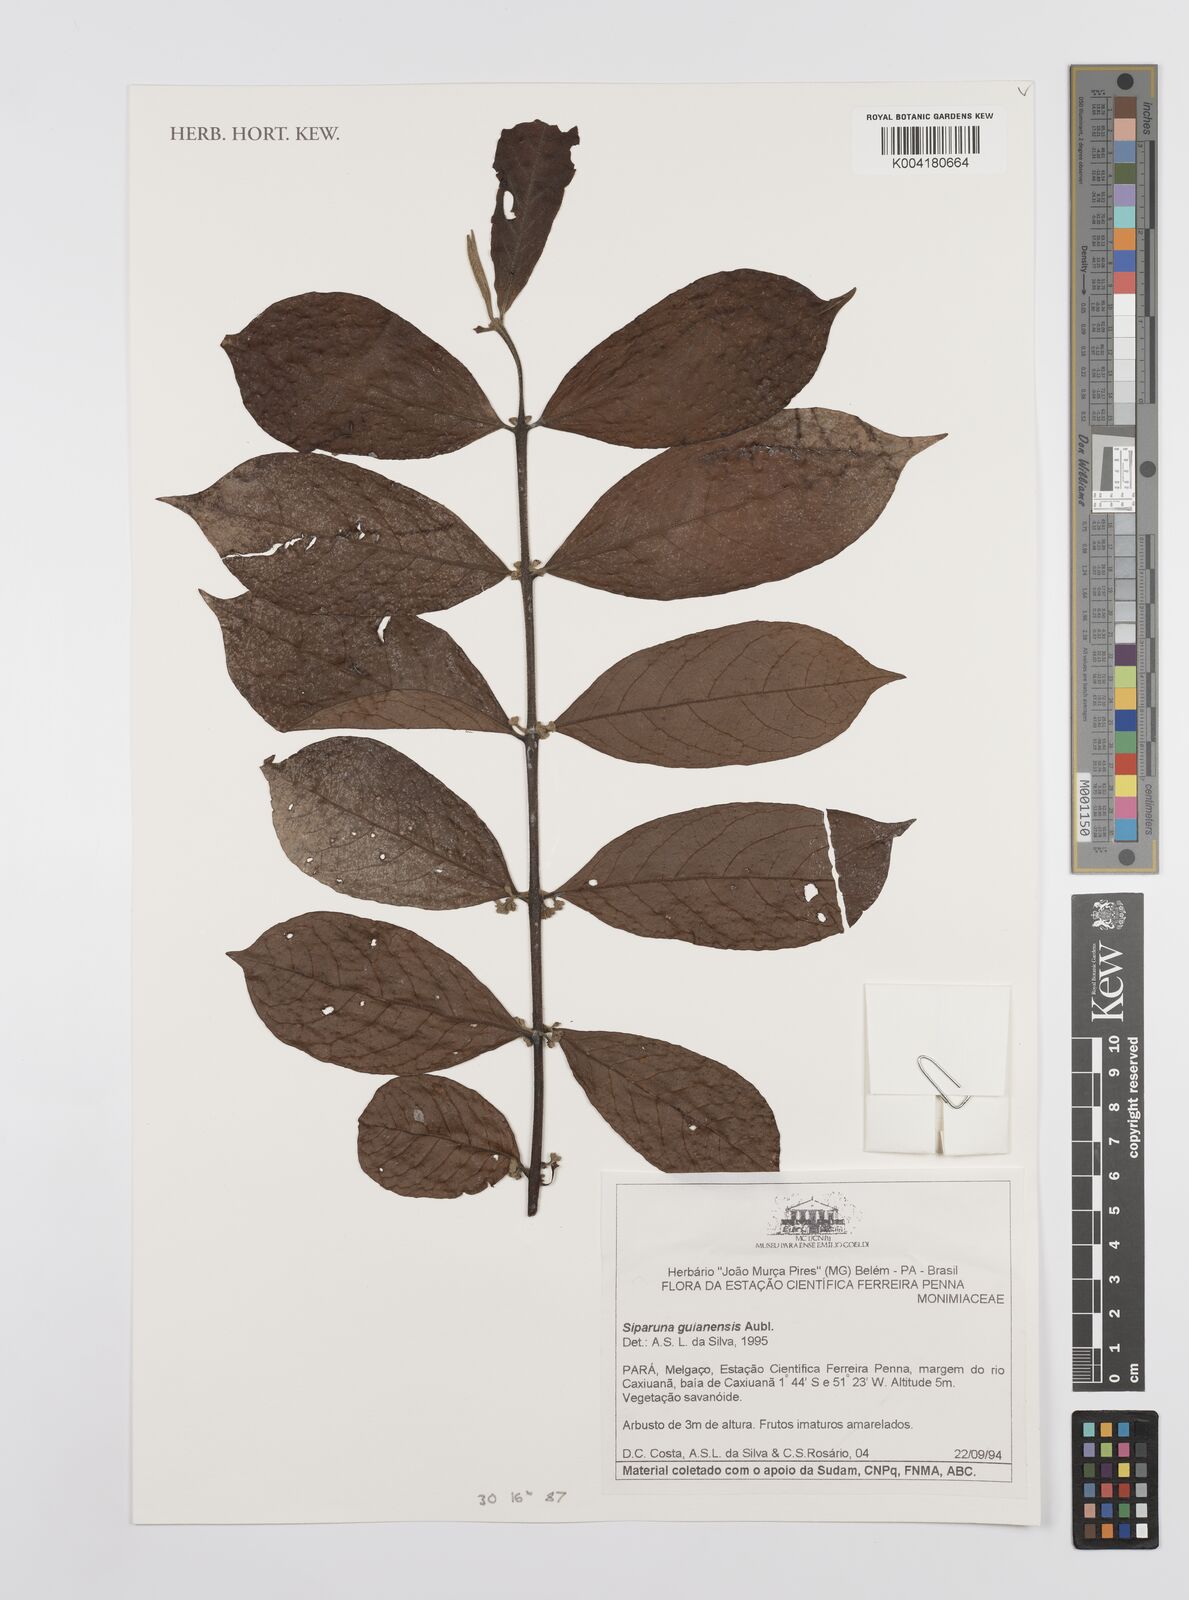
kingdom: Plantae
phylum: Tracheophyta
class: Magnoliopsida
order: Laurales
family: Siparunaceae
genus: Siparuna
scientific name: Siparuna guianensis
